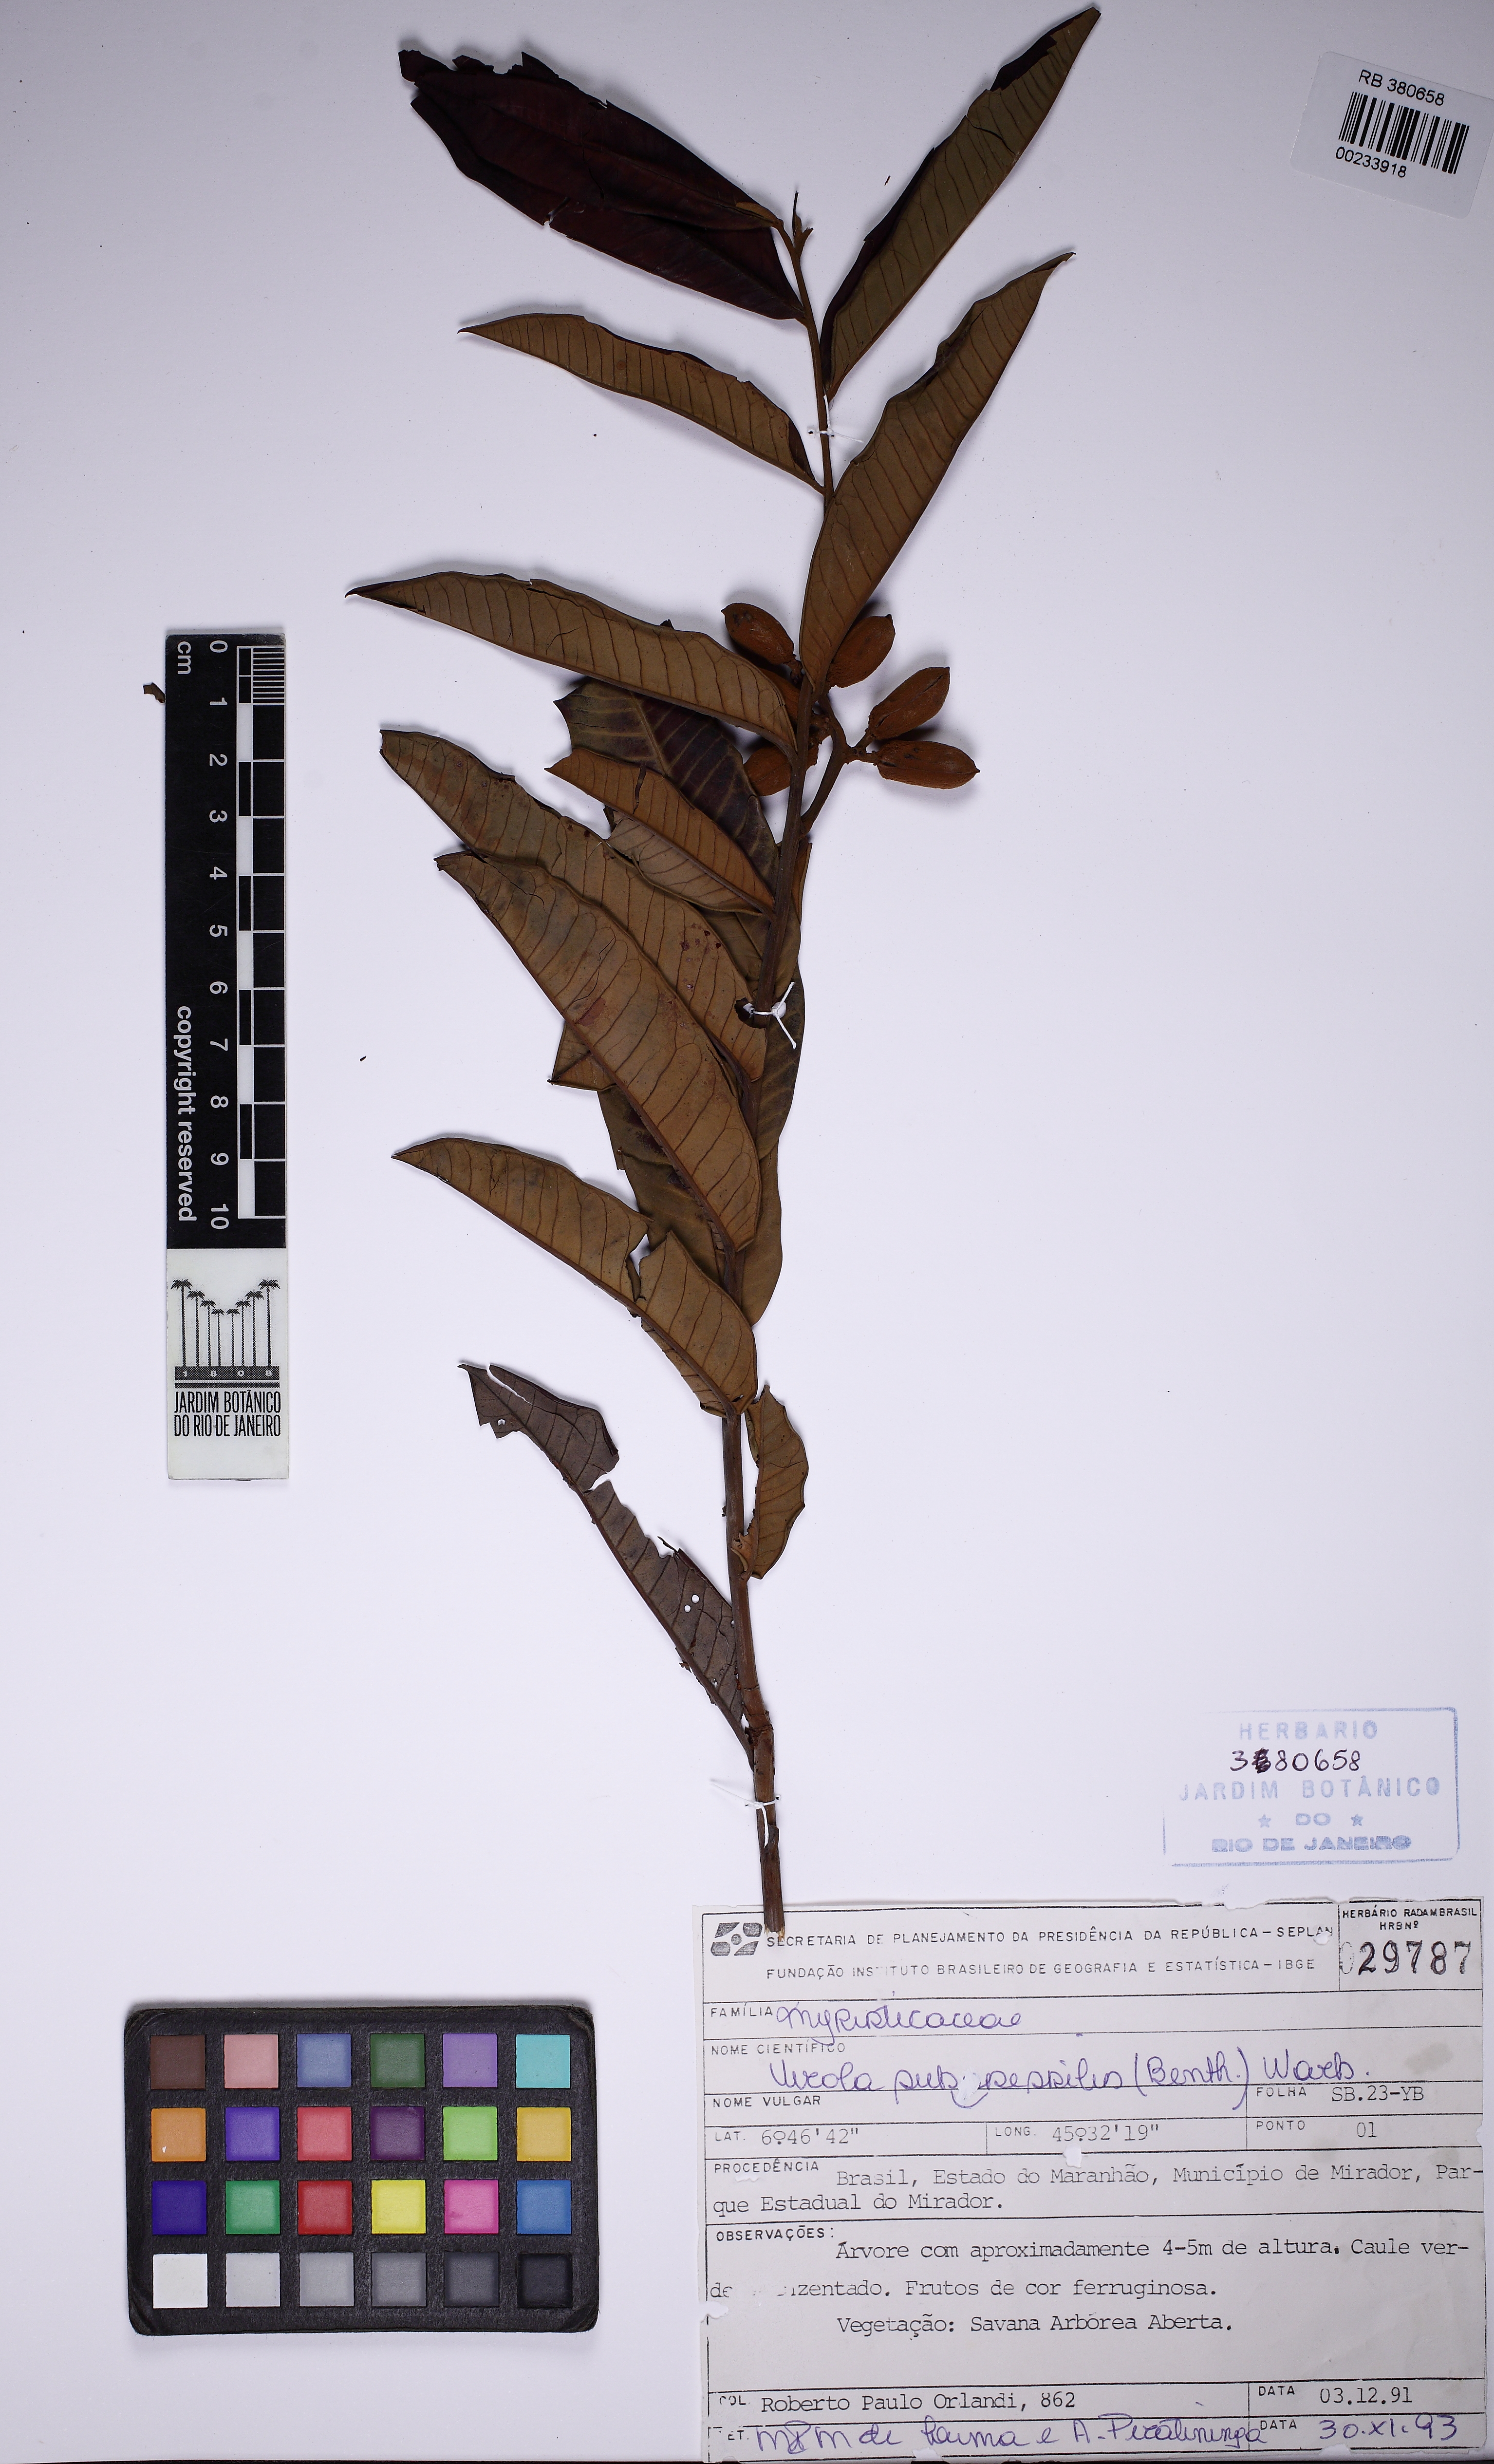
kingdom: Plantae
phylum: Tracheophyta
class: Magnoliopsida
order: Magnoliales
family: Myristicaceae
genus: Virola
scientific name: Virola subsessilis
